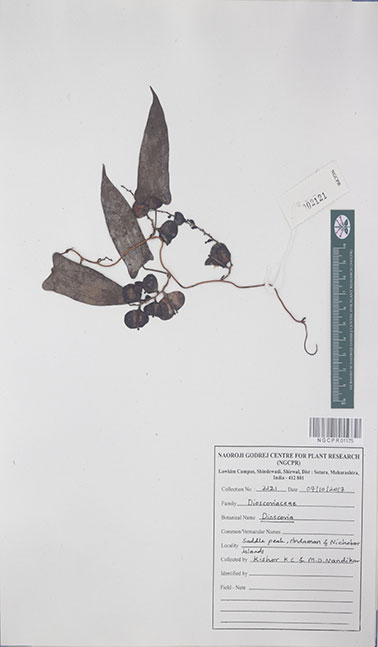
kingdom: Plantae
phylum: Tracheophyta
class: Liliopsida
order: Dioscoreales
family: Dioscoreaceae
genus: Dioscorea
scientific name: Dioscorea
